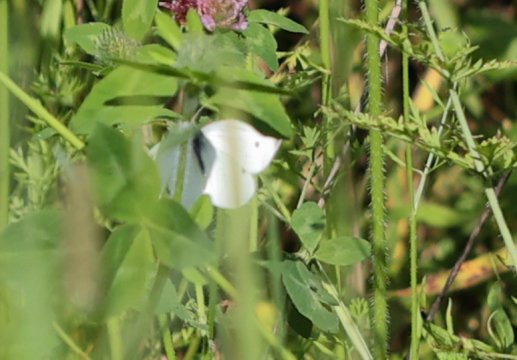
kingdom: Animalia
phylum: Arthropoda
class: Insecta
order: Lepidoptera
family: Pieridae
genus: Pieris
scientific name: Pieris rapae
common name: Cabbage White
